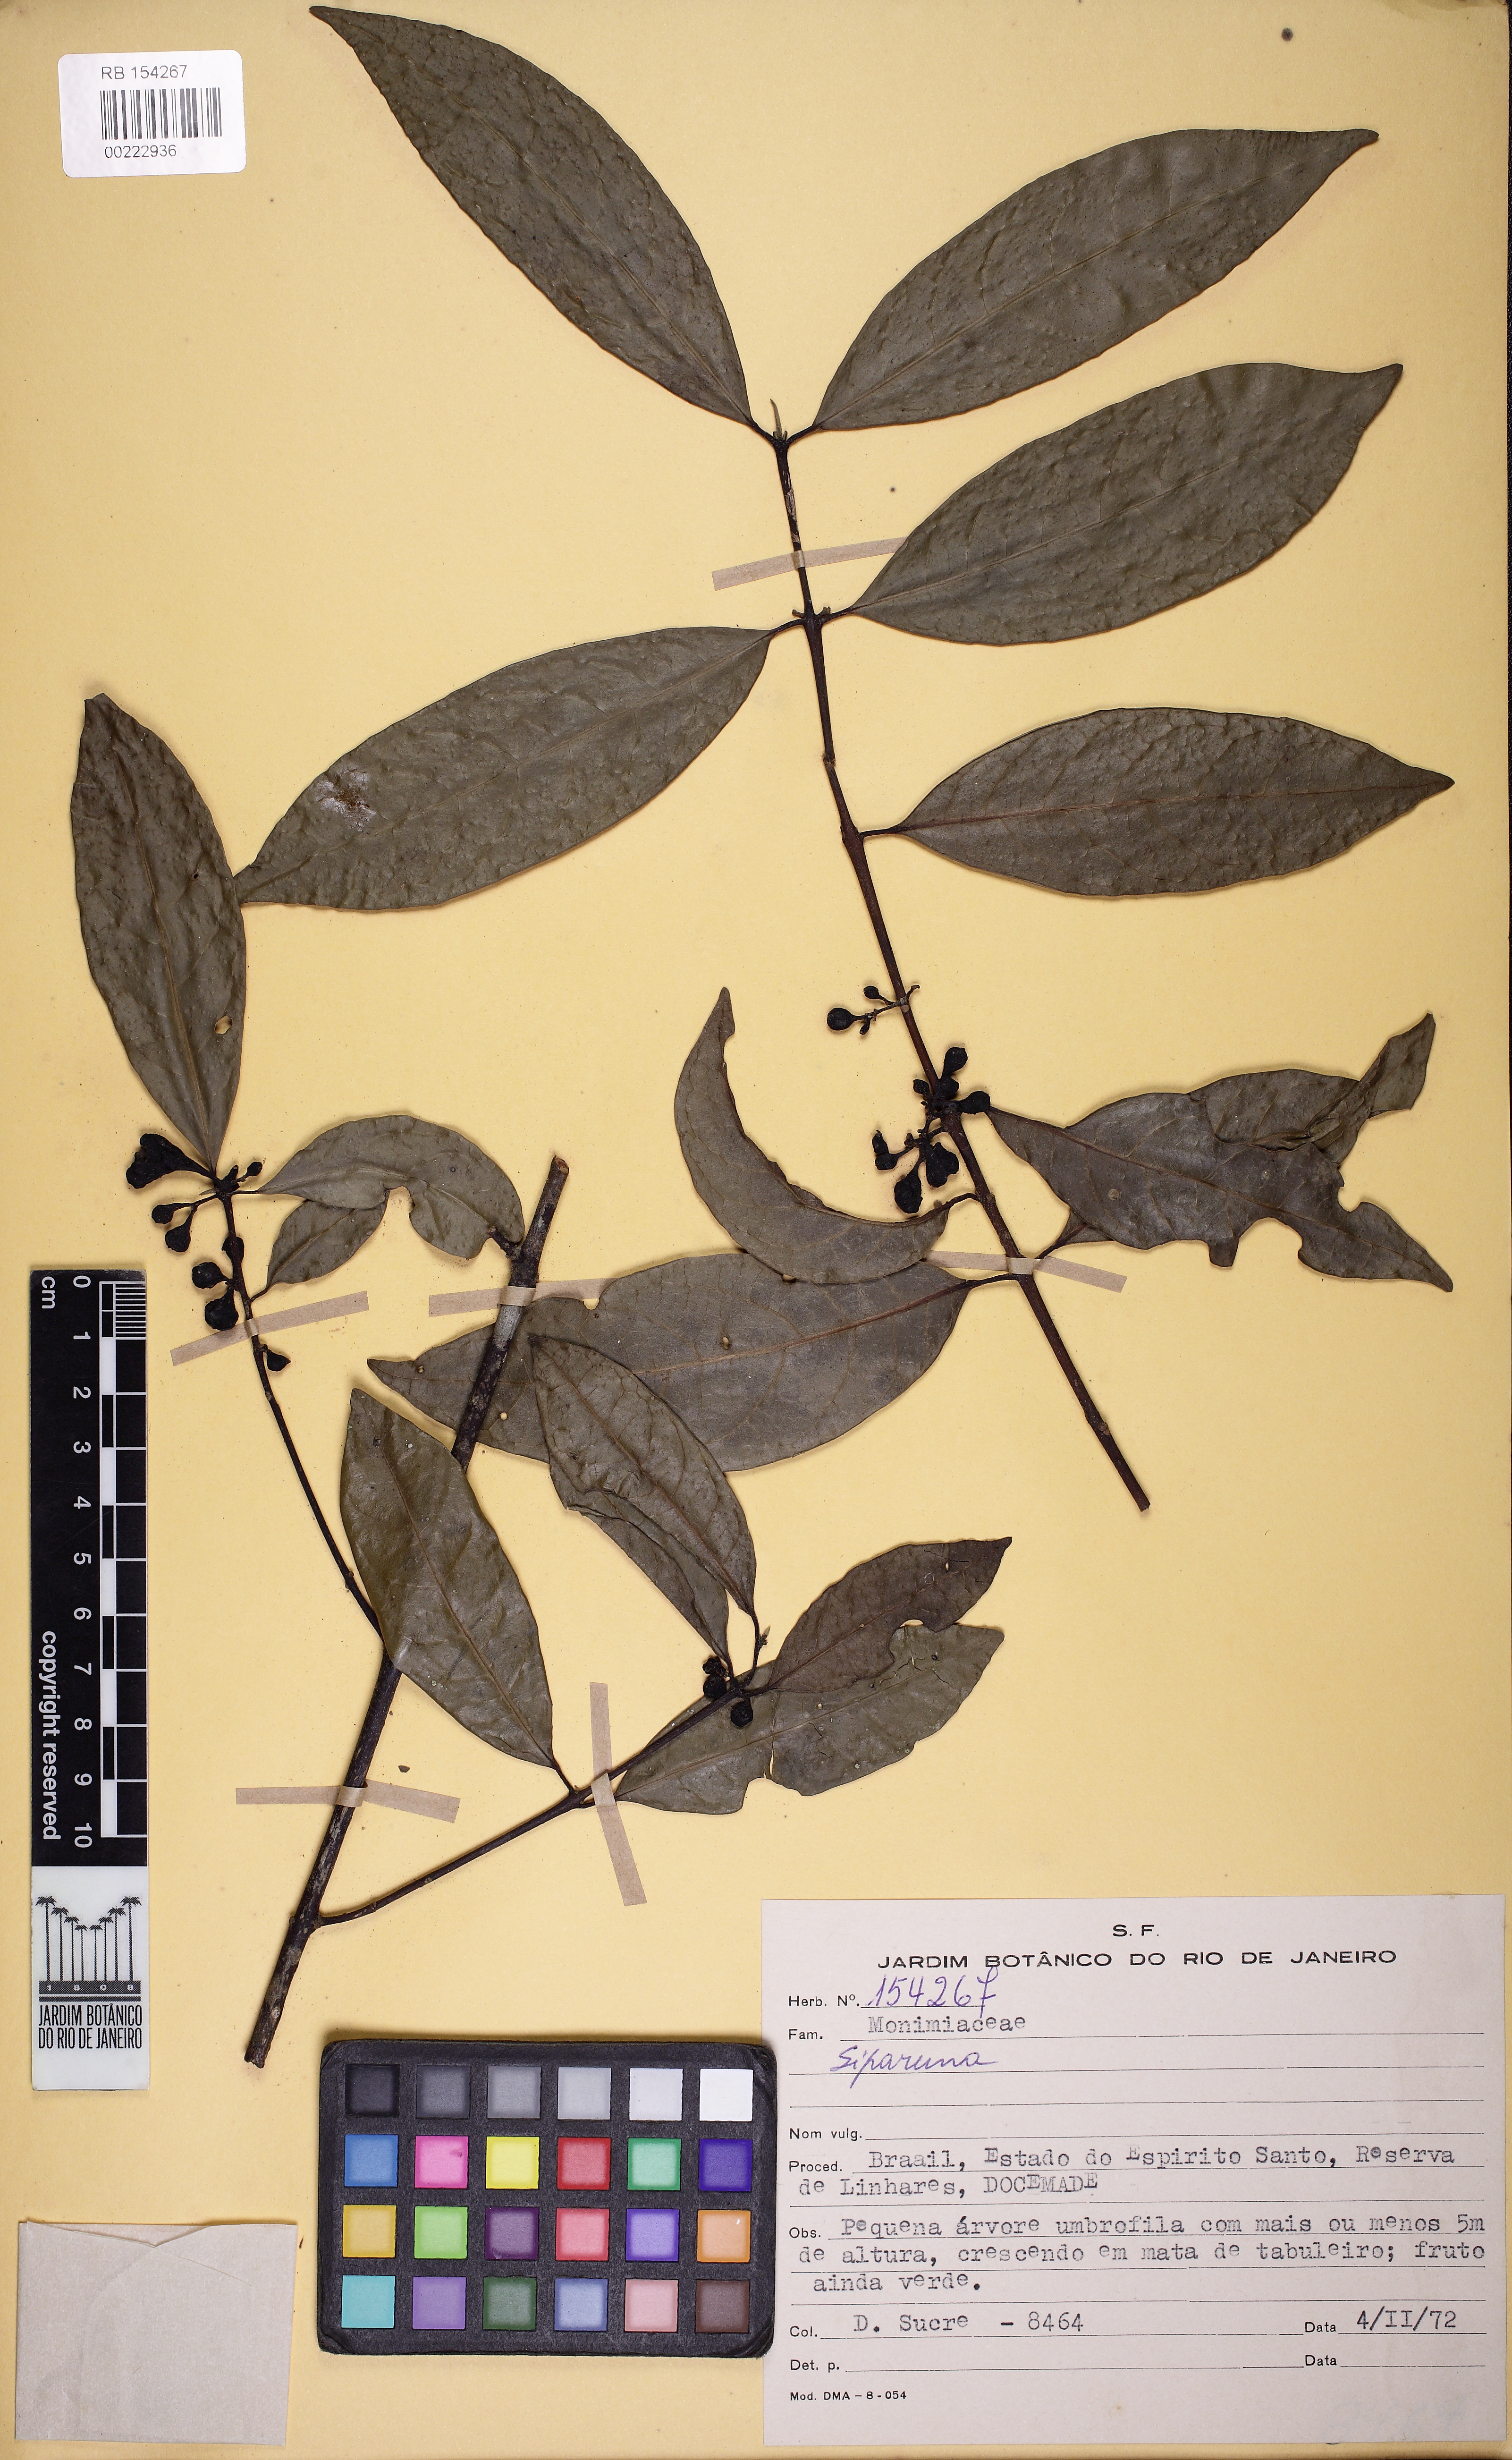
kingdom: Plantae
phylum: Tracheophyta
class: Magnoliopsida
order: Laurales
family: Siparunaceae
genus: Siparuna
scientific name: Siparuna guianensis
